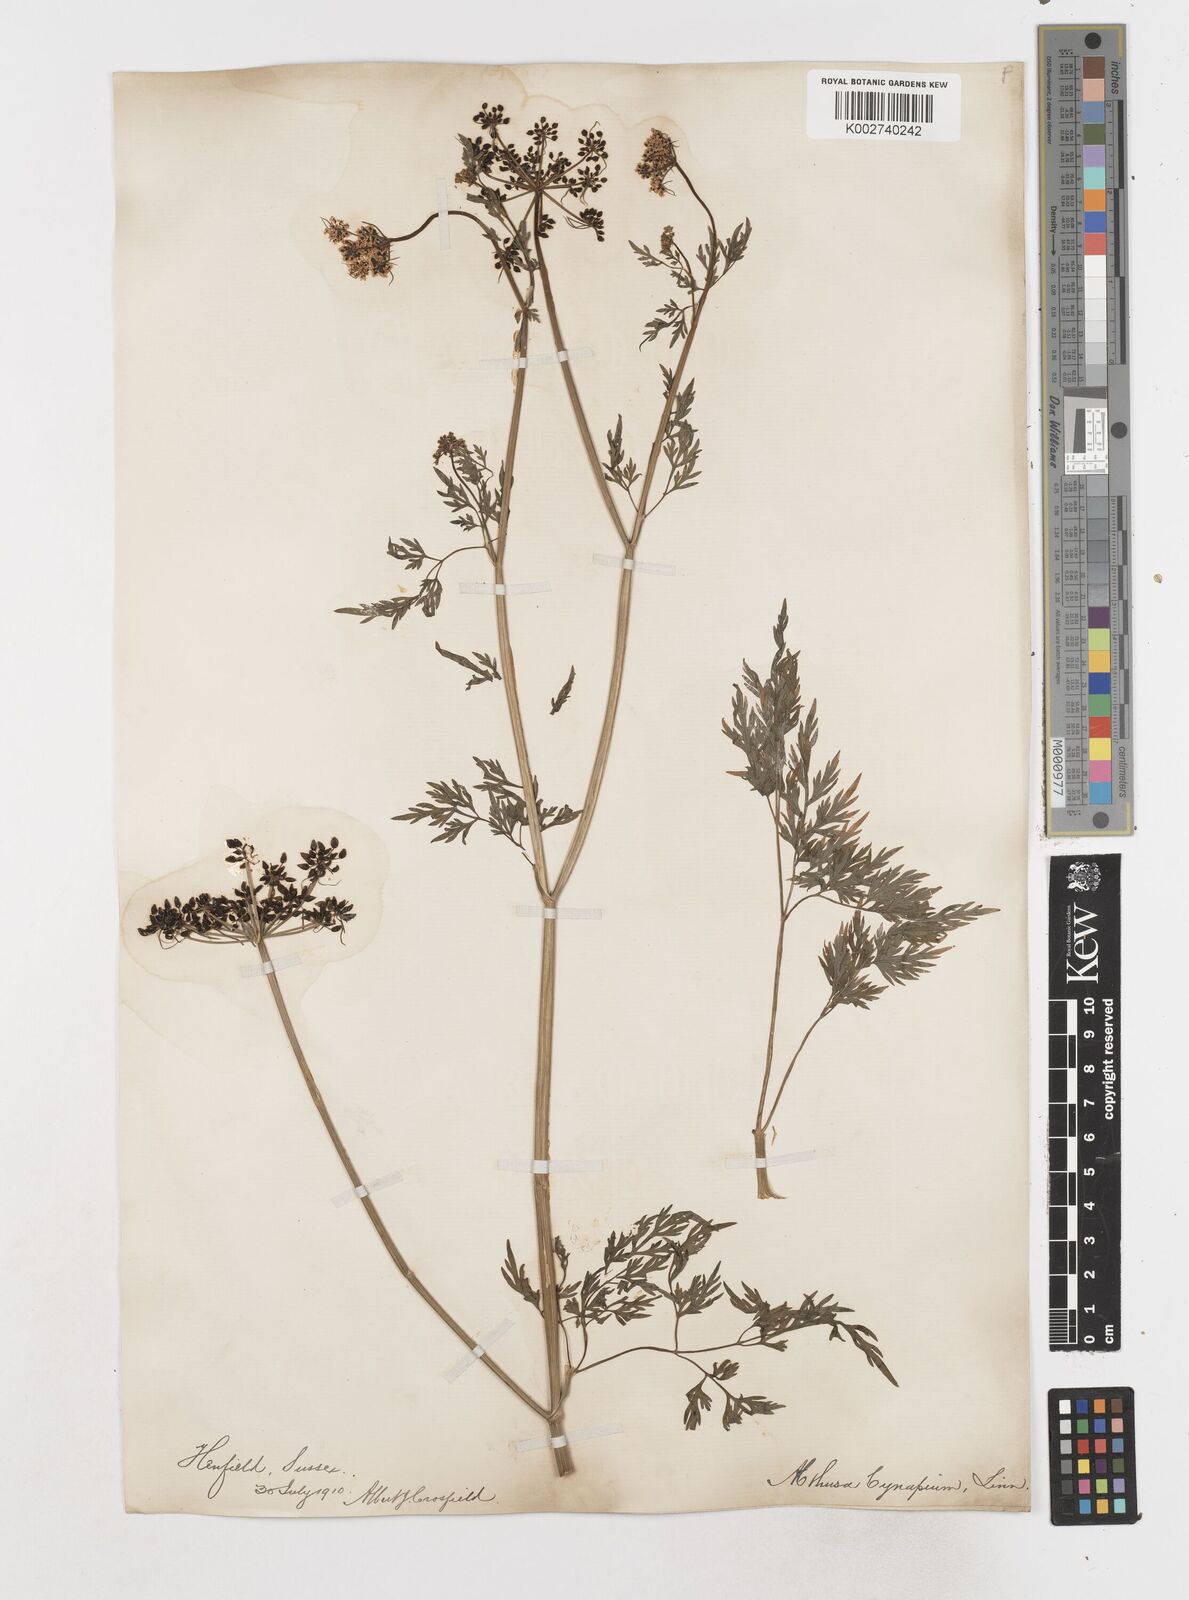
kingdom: Plantae
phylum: Tracheophyta
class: Magnoliopsida
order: Apiales
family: Apiaceae
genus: Aethusa
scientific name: Aethusa cynapium
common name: Fool's parsley
